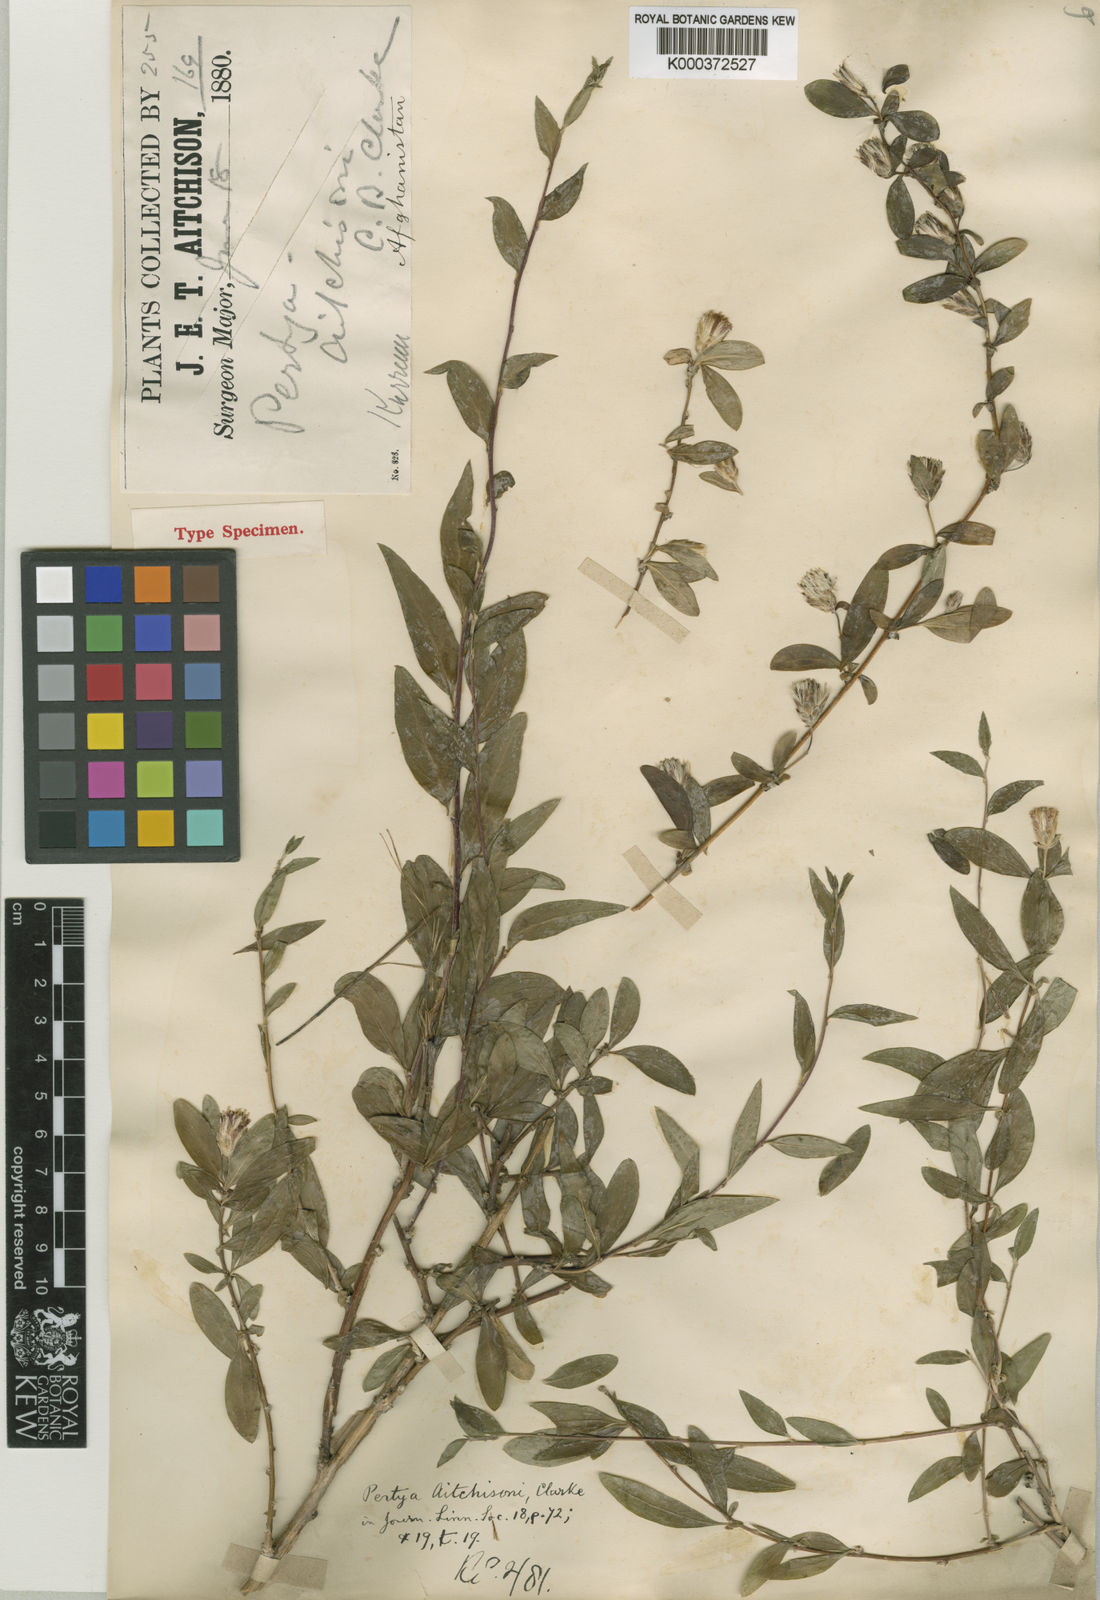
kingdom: Plantae
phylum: Tracheophyta
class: Magnoliopsida
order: Asterales
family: Asteraceae
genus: Pertya
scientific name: Pertya aitchisonii
